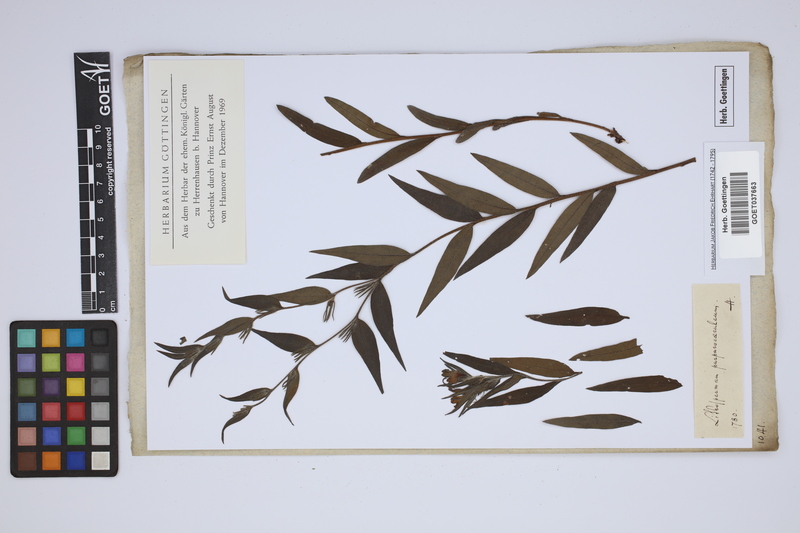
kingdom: Plantae
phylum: Tracheophyta
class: Magnoliopsida
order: Boraginales
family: Boraginaceae
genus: Aegonychon
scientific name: Aegonychon purpurocaeruleum
